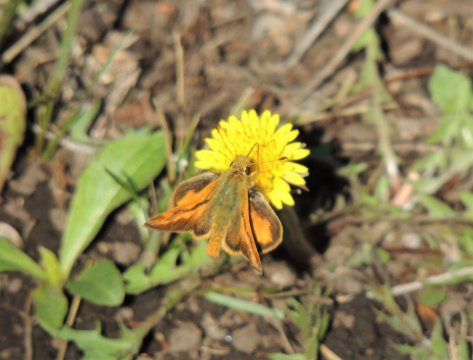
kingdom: Animalia
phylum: Arthropoda
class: Insecta
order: Lepidoptera
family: Hesperiidae
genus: Ochlodes
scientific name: Ochlodes sylvanoides
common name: Woodland Skipper
